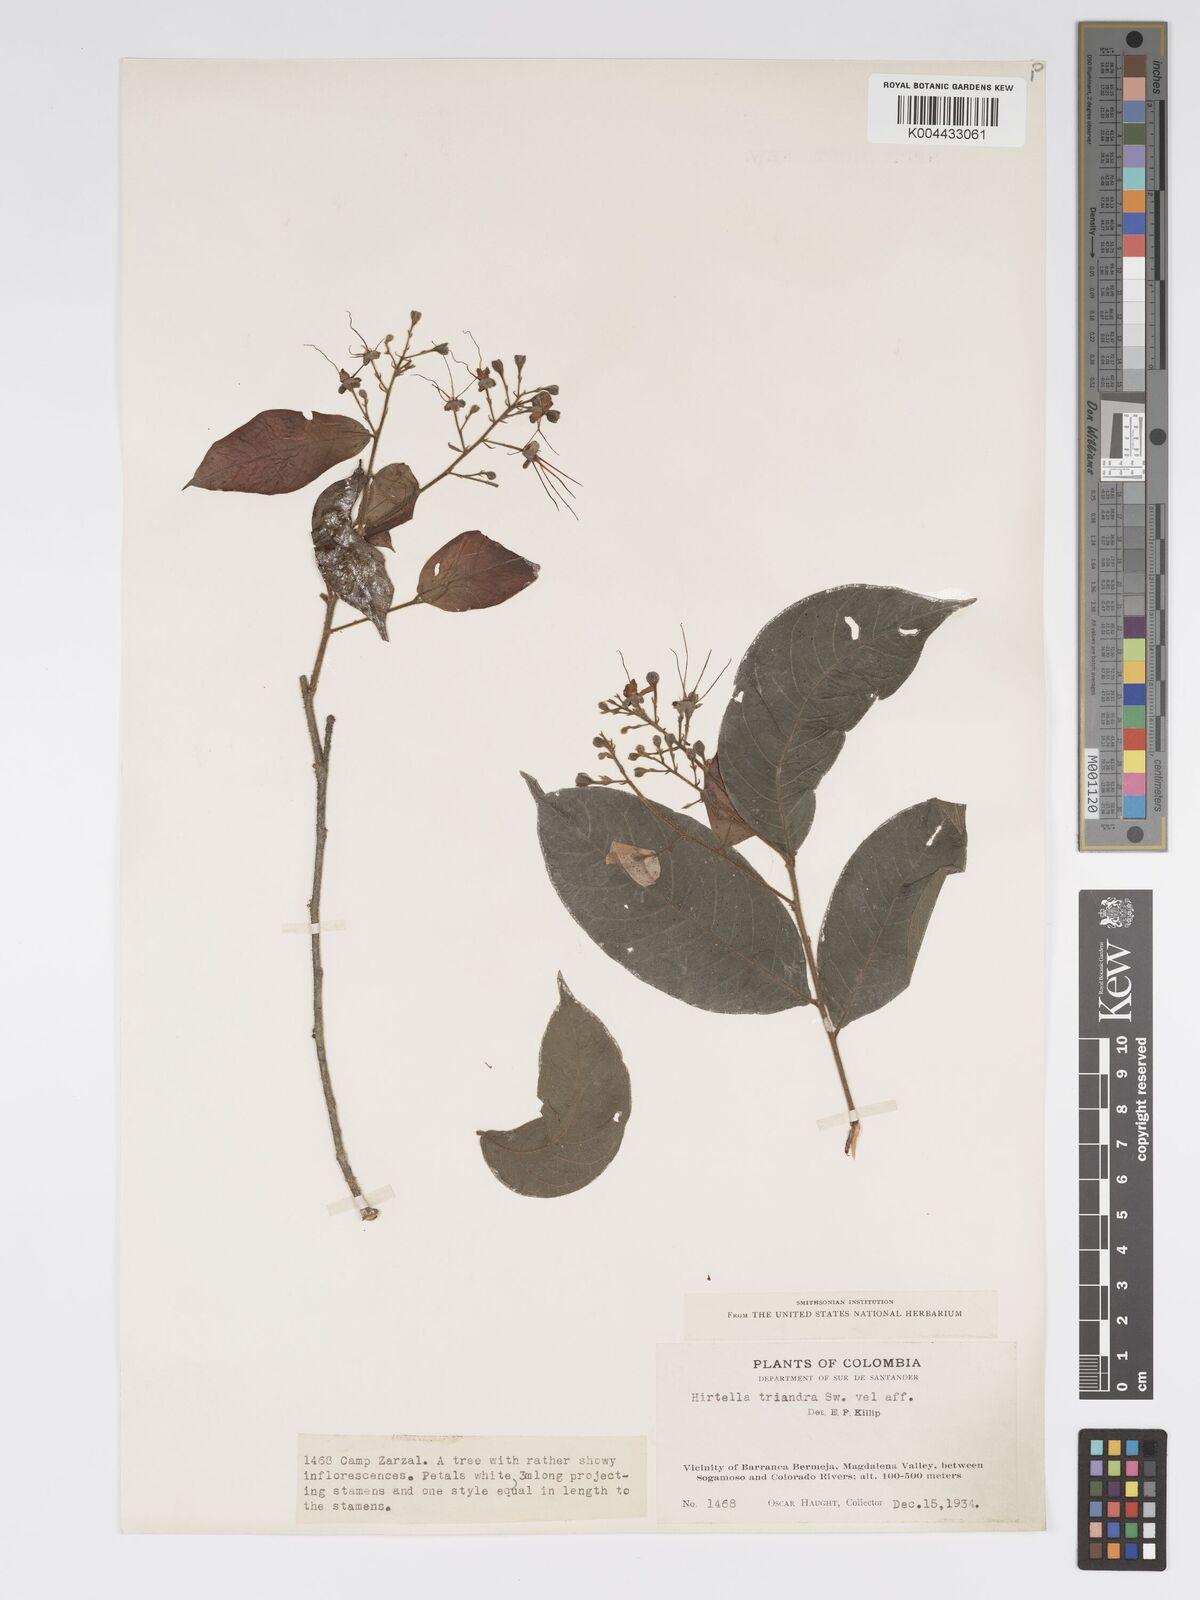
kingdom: Plantae
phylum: Tracheophyta
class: Magnoliopsida
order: Malpighiales
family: Chrysobalanaceae
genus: Hirtella
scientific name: Hirtella triandra
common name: Hairy plum
